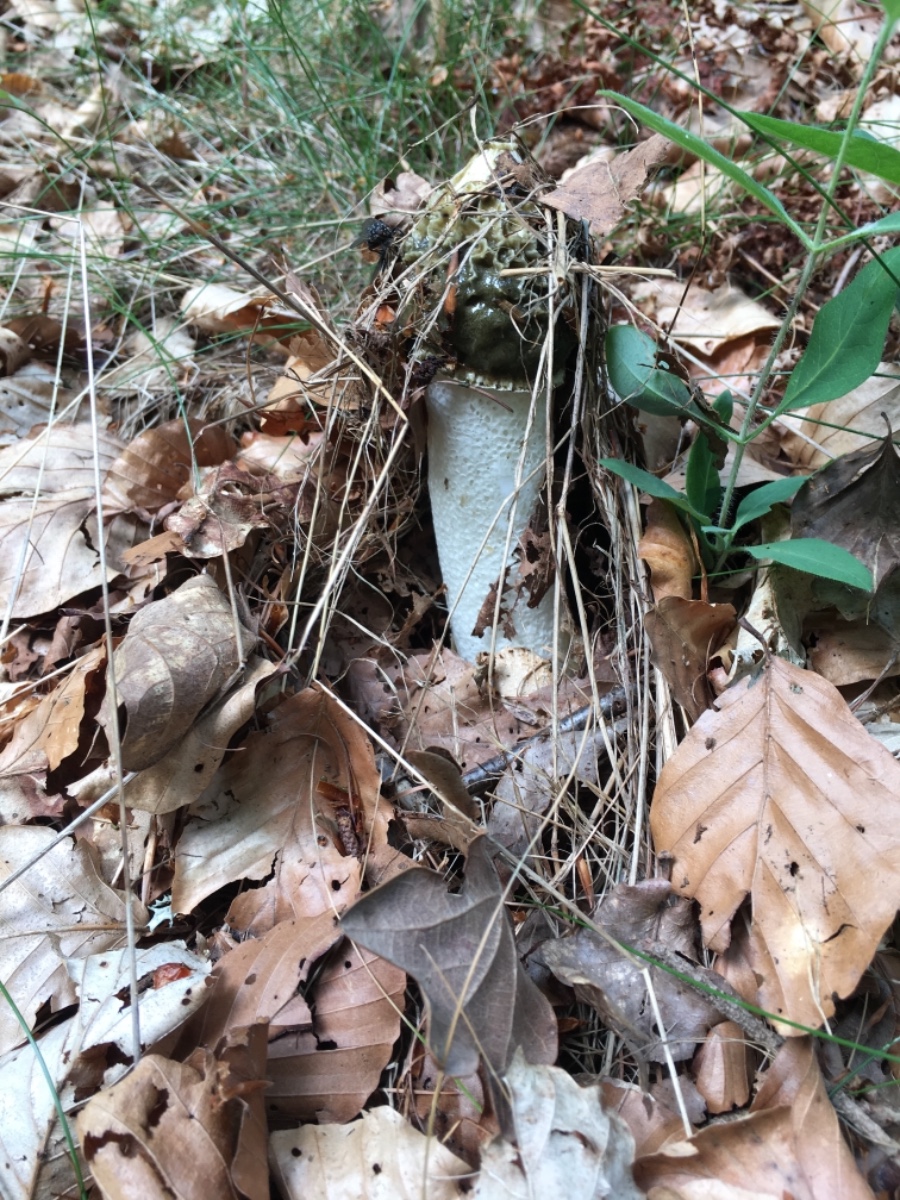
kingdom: Fungi
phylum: Basidiomycota
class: Agaricomycetes
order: Phallales
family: Phallaceae
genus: Phallus
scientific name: Phallus impudicus
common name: almindelig stinksvamp
